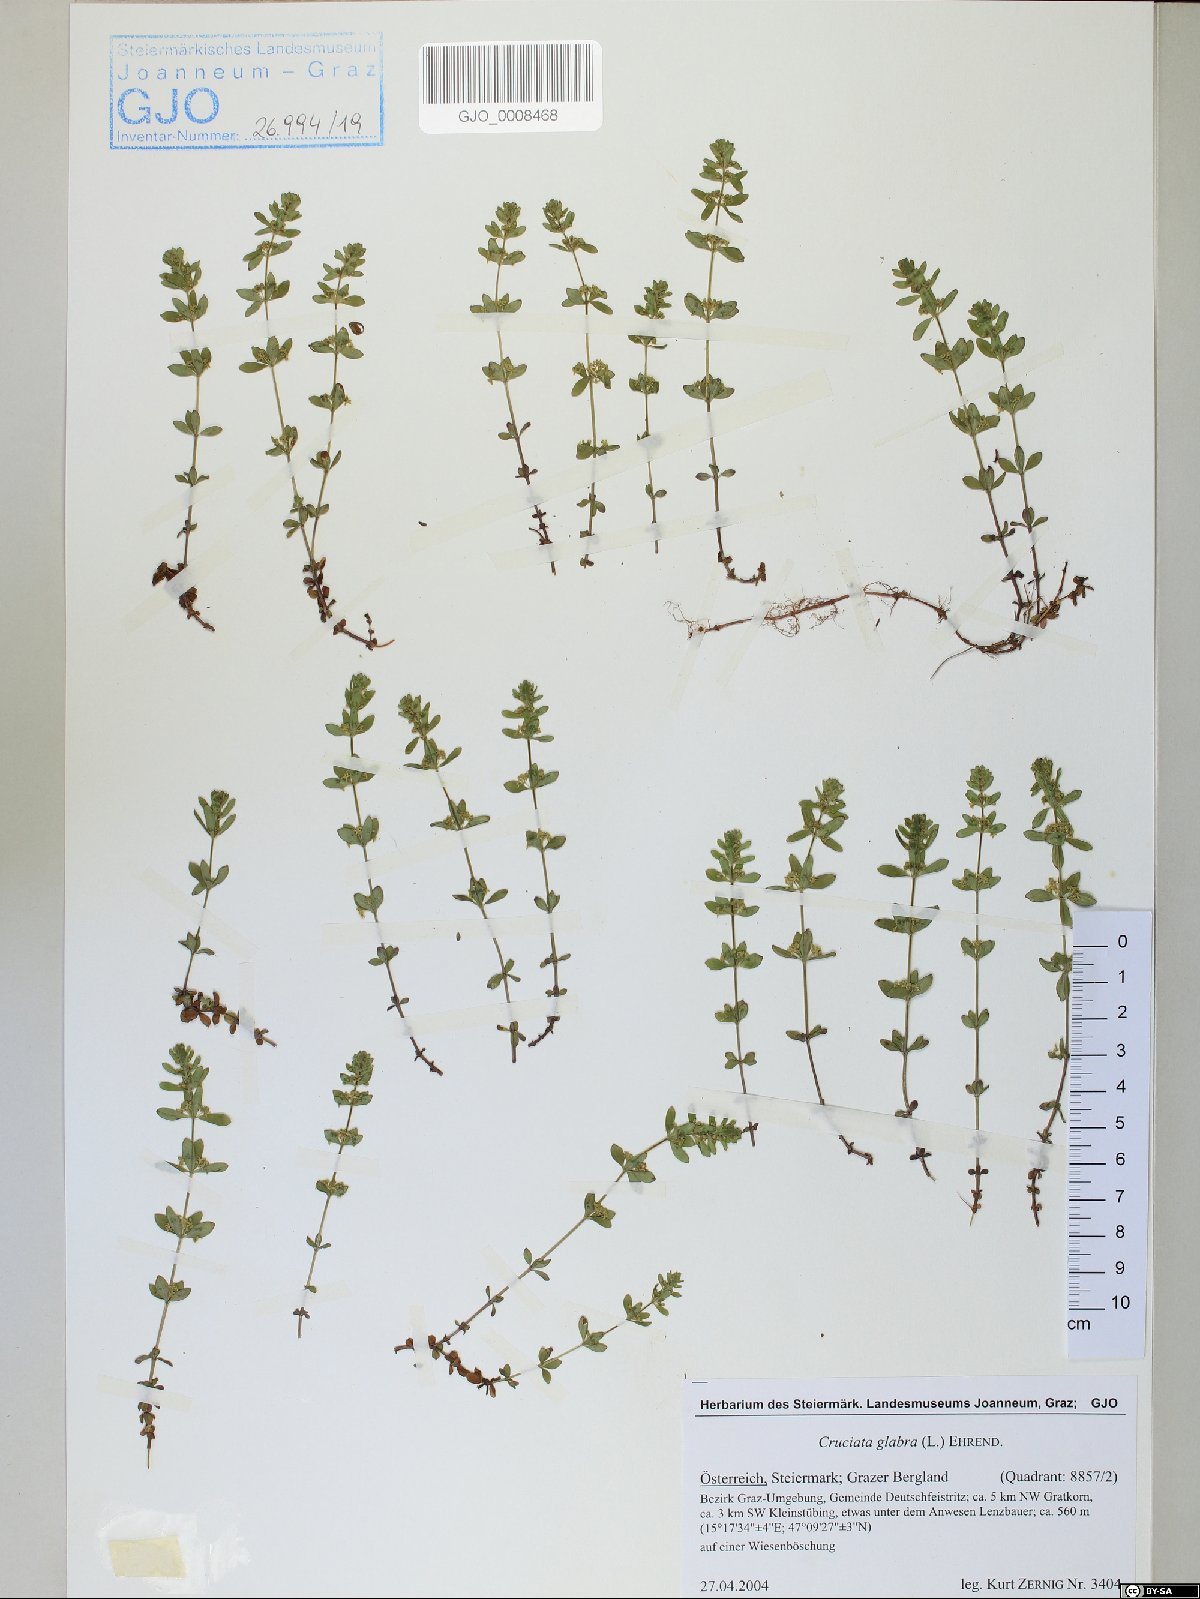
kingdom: Plantae
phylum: Tracheophyta
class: Magnoliopsida
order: Gentianales
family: Rubiaceae
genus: Cruciata
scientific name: Cruciata glabra
